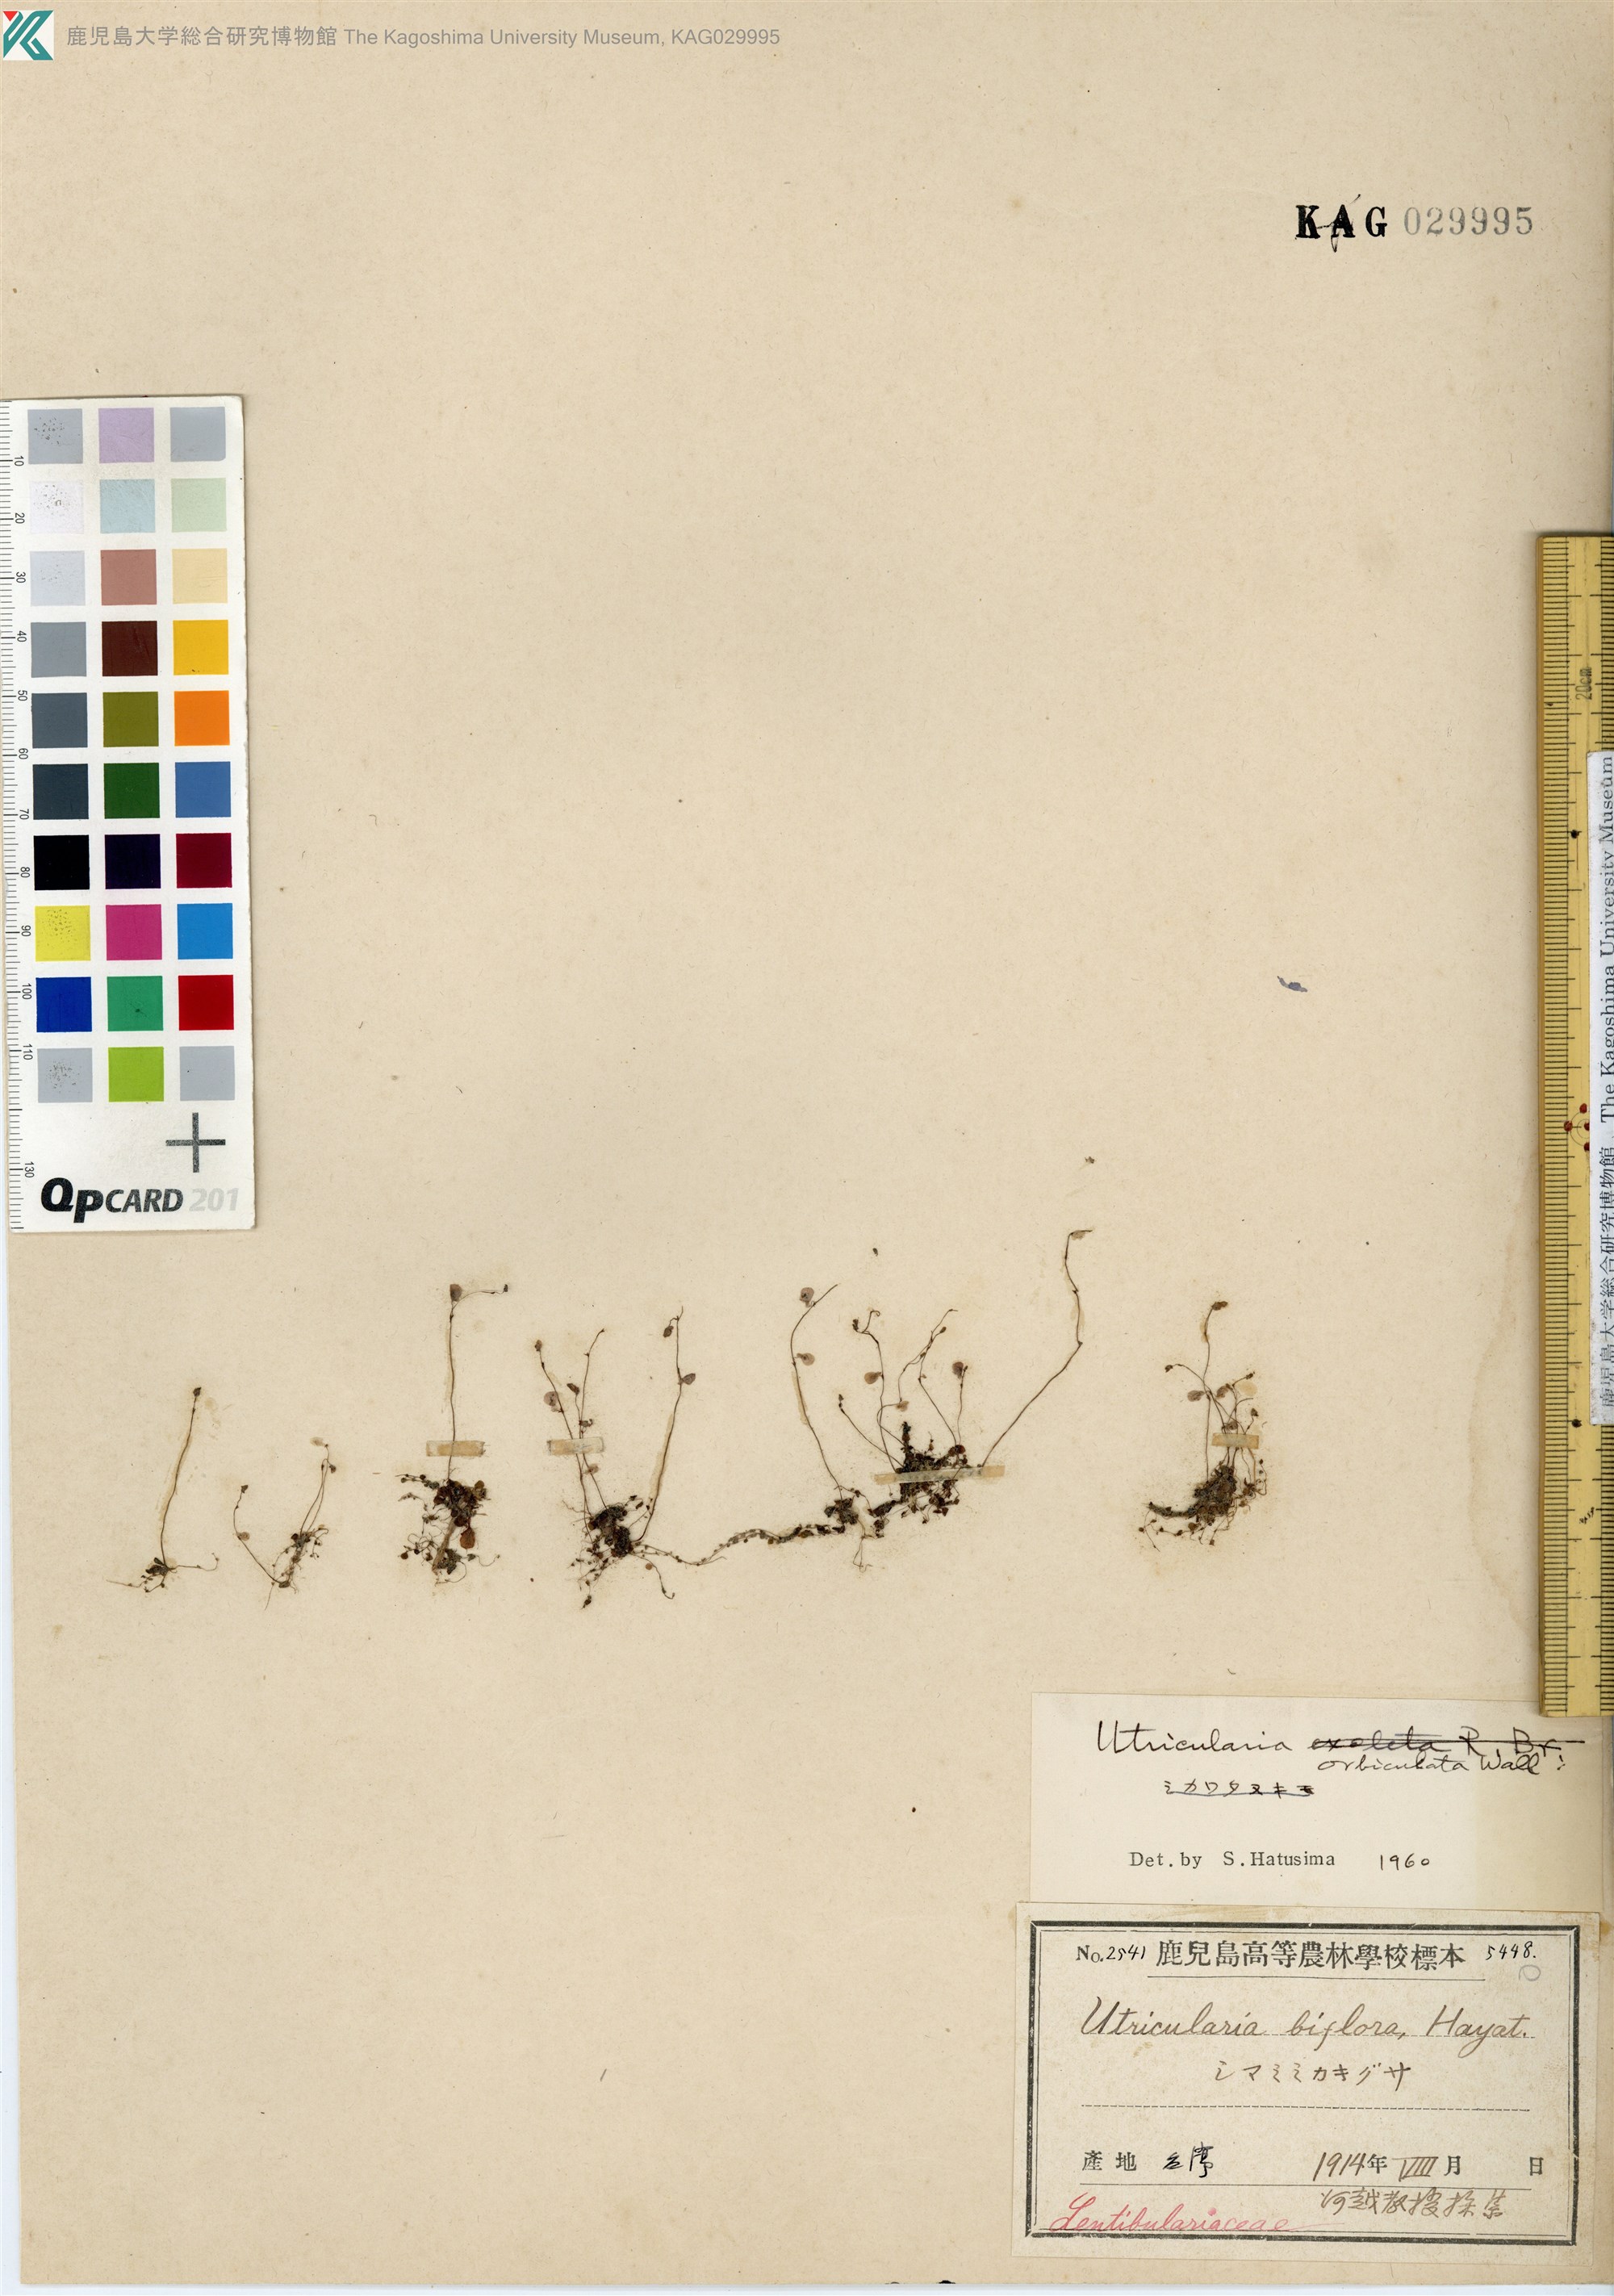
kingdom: Plantae
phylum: Tracheophyta
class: Magnoliopsida
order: Lamiales
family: Lentibulariaceae
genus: Utricularia
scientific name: Utricularia orbiculata
